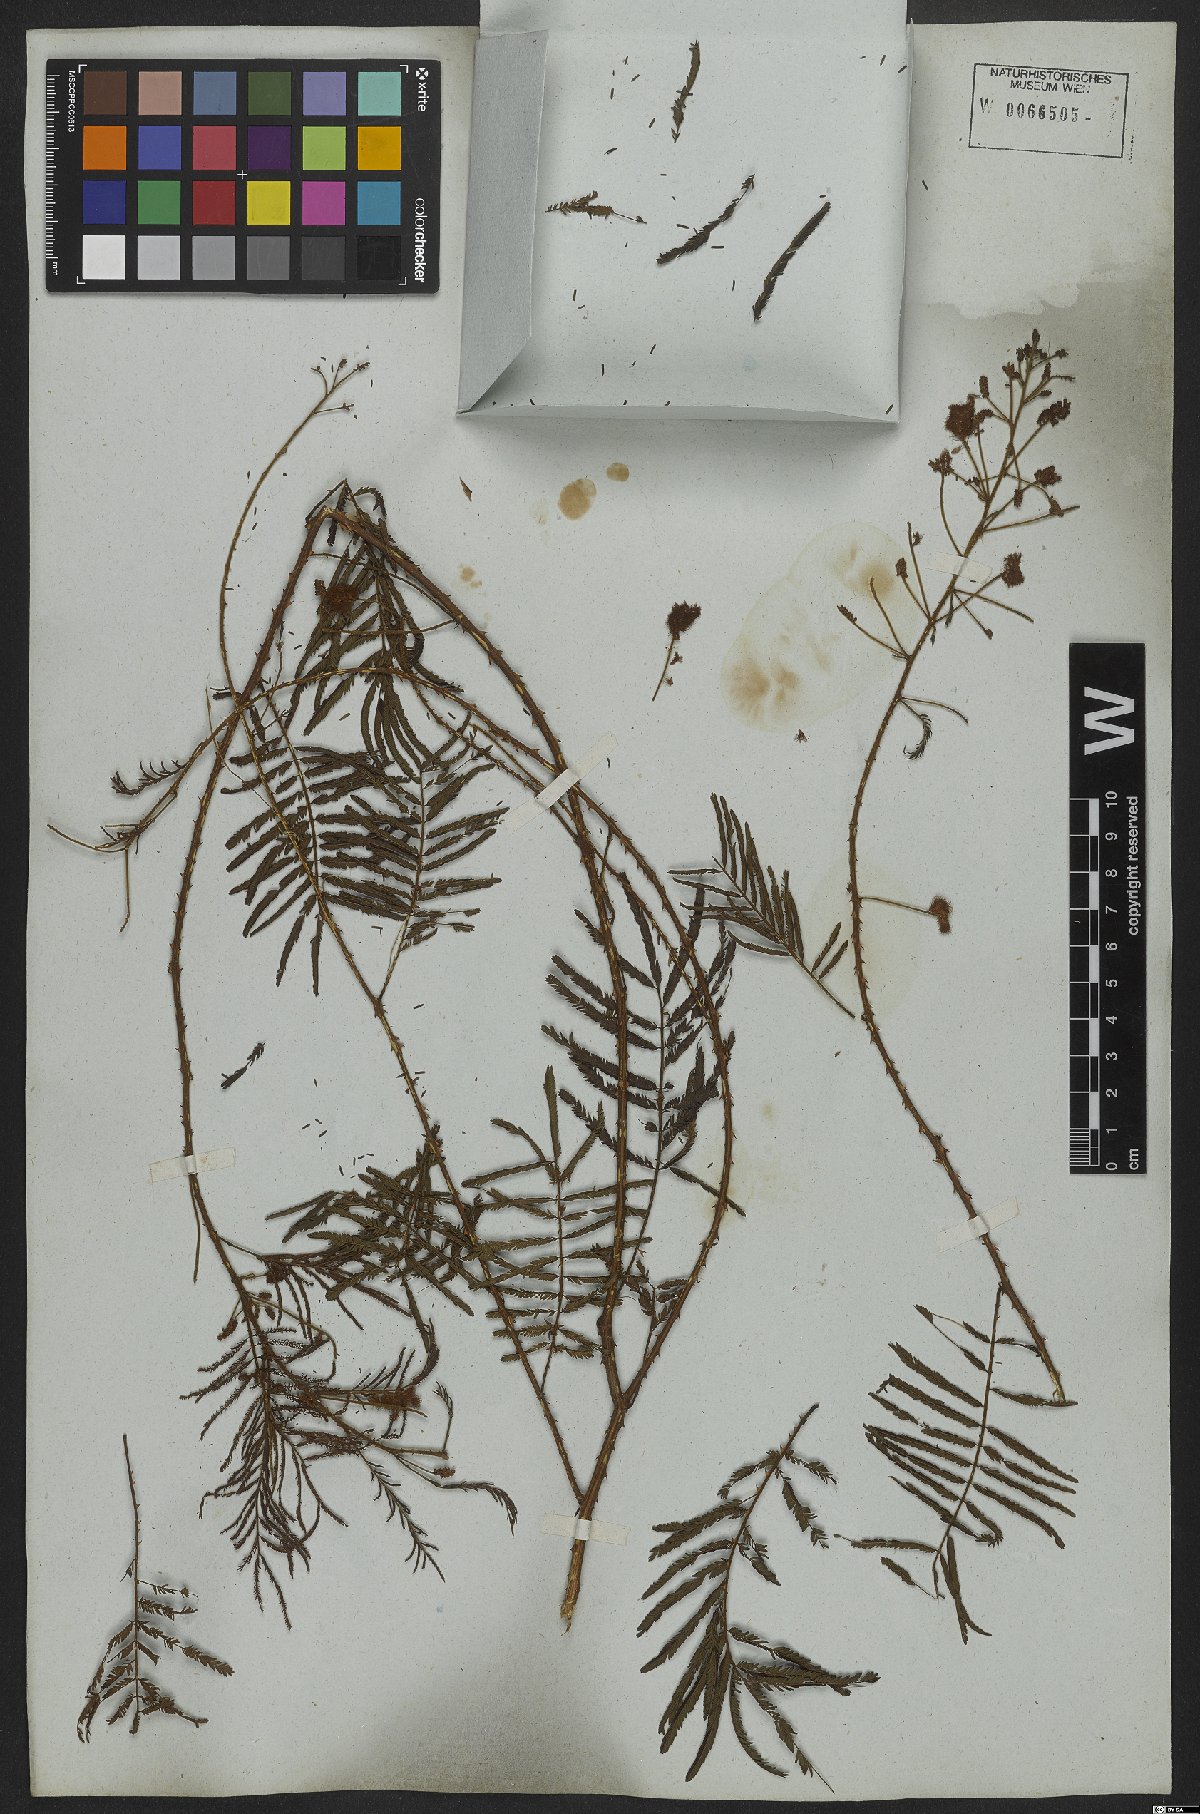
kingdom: Plantae
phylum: Tracheophyta
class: Magnoliopsida
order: Fabales
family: Fabaceae
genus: Senegalia
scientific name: Senegalia lowei
